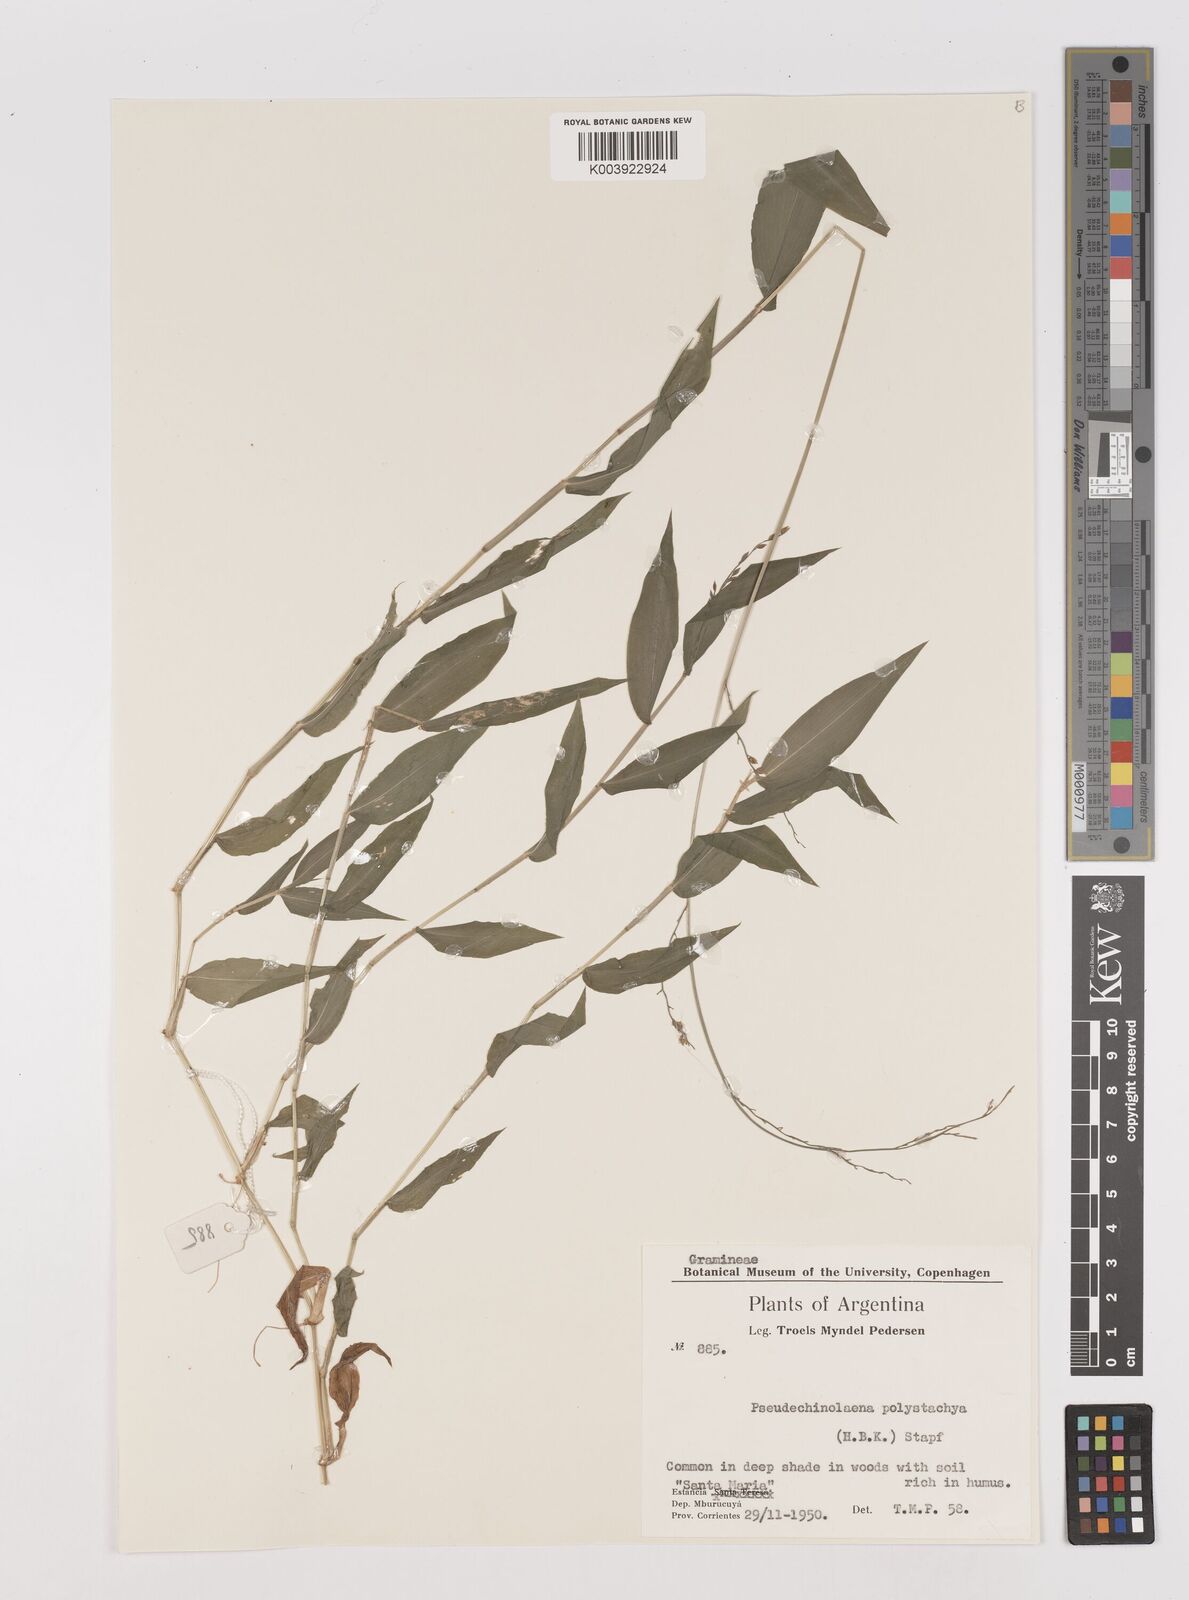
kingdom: Plantae
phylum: Tracheophyta
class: Liliopsida
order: Poales
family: Poaceae
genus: Pseudechinolaena
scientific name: Pseudechinolaena polystachya
